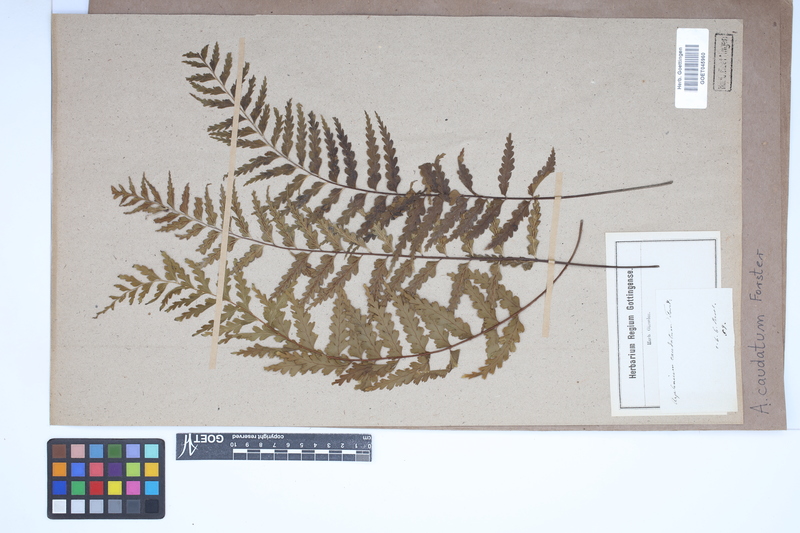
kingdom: Plantae
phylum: Tracheophyta
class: Polypodiopsida
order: Polypodiales
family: Aspleniaceae
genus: Asplenium
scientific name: Asplenium caudatum
